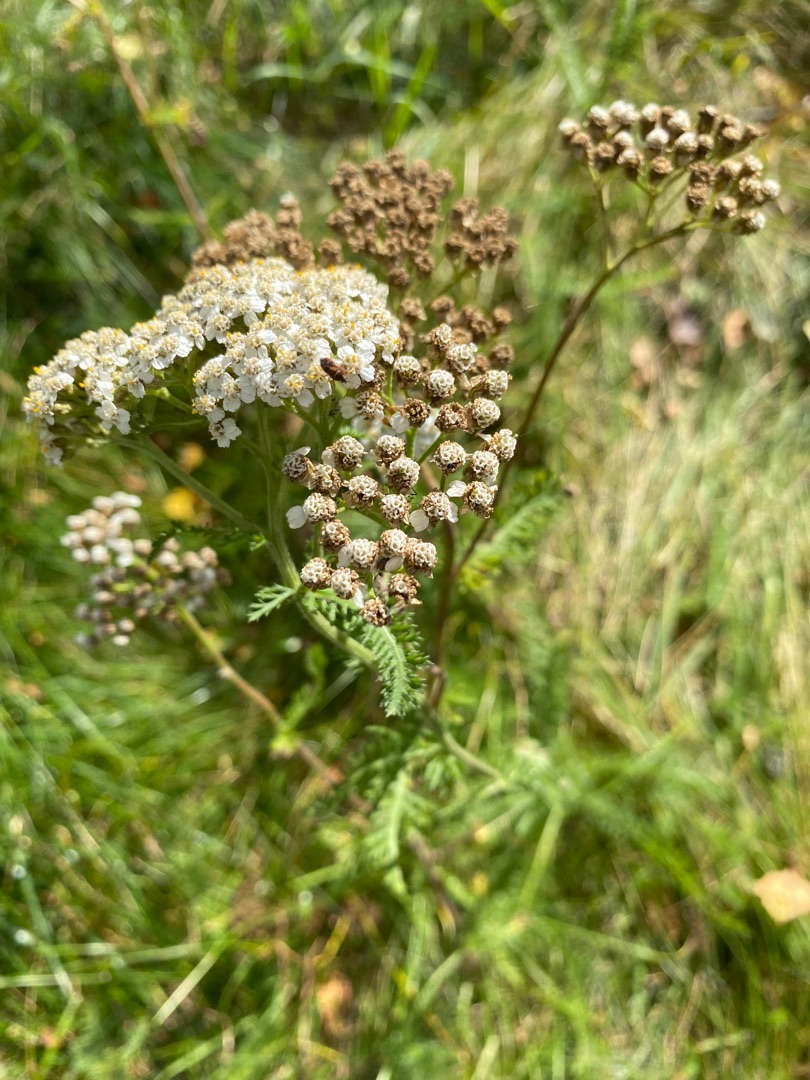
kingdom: Plantae
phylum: Tracheophyta
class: Magnoliopsida
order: Asterales
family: Asteraceae
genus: Achillea
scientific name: Achillea millefolium
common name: Almindelig røllike
